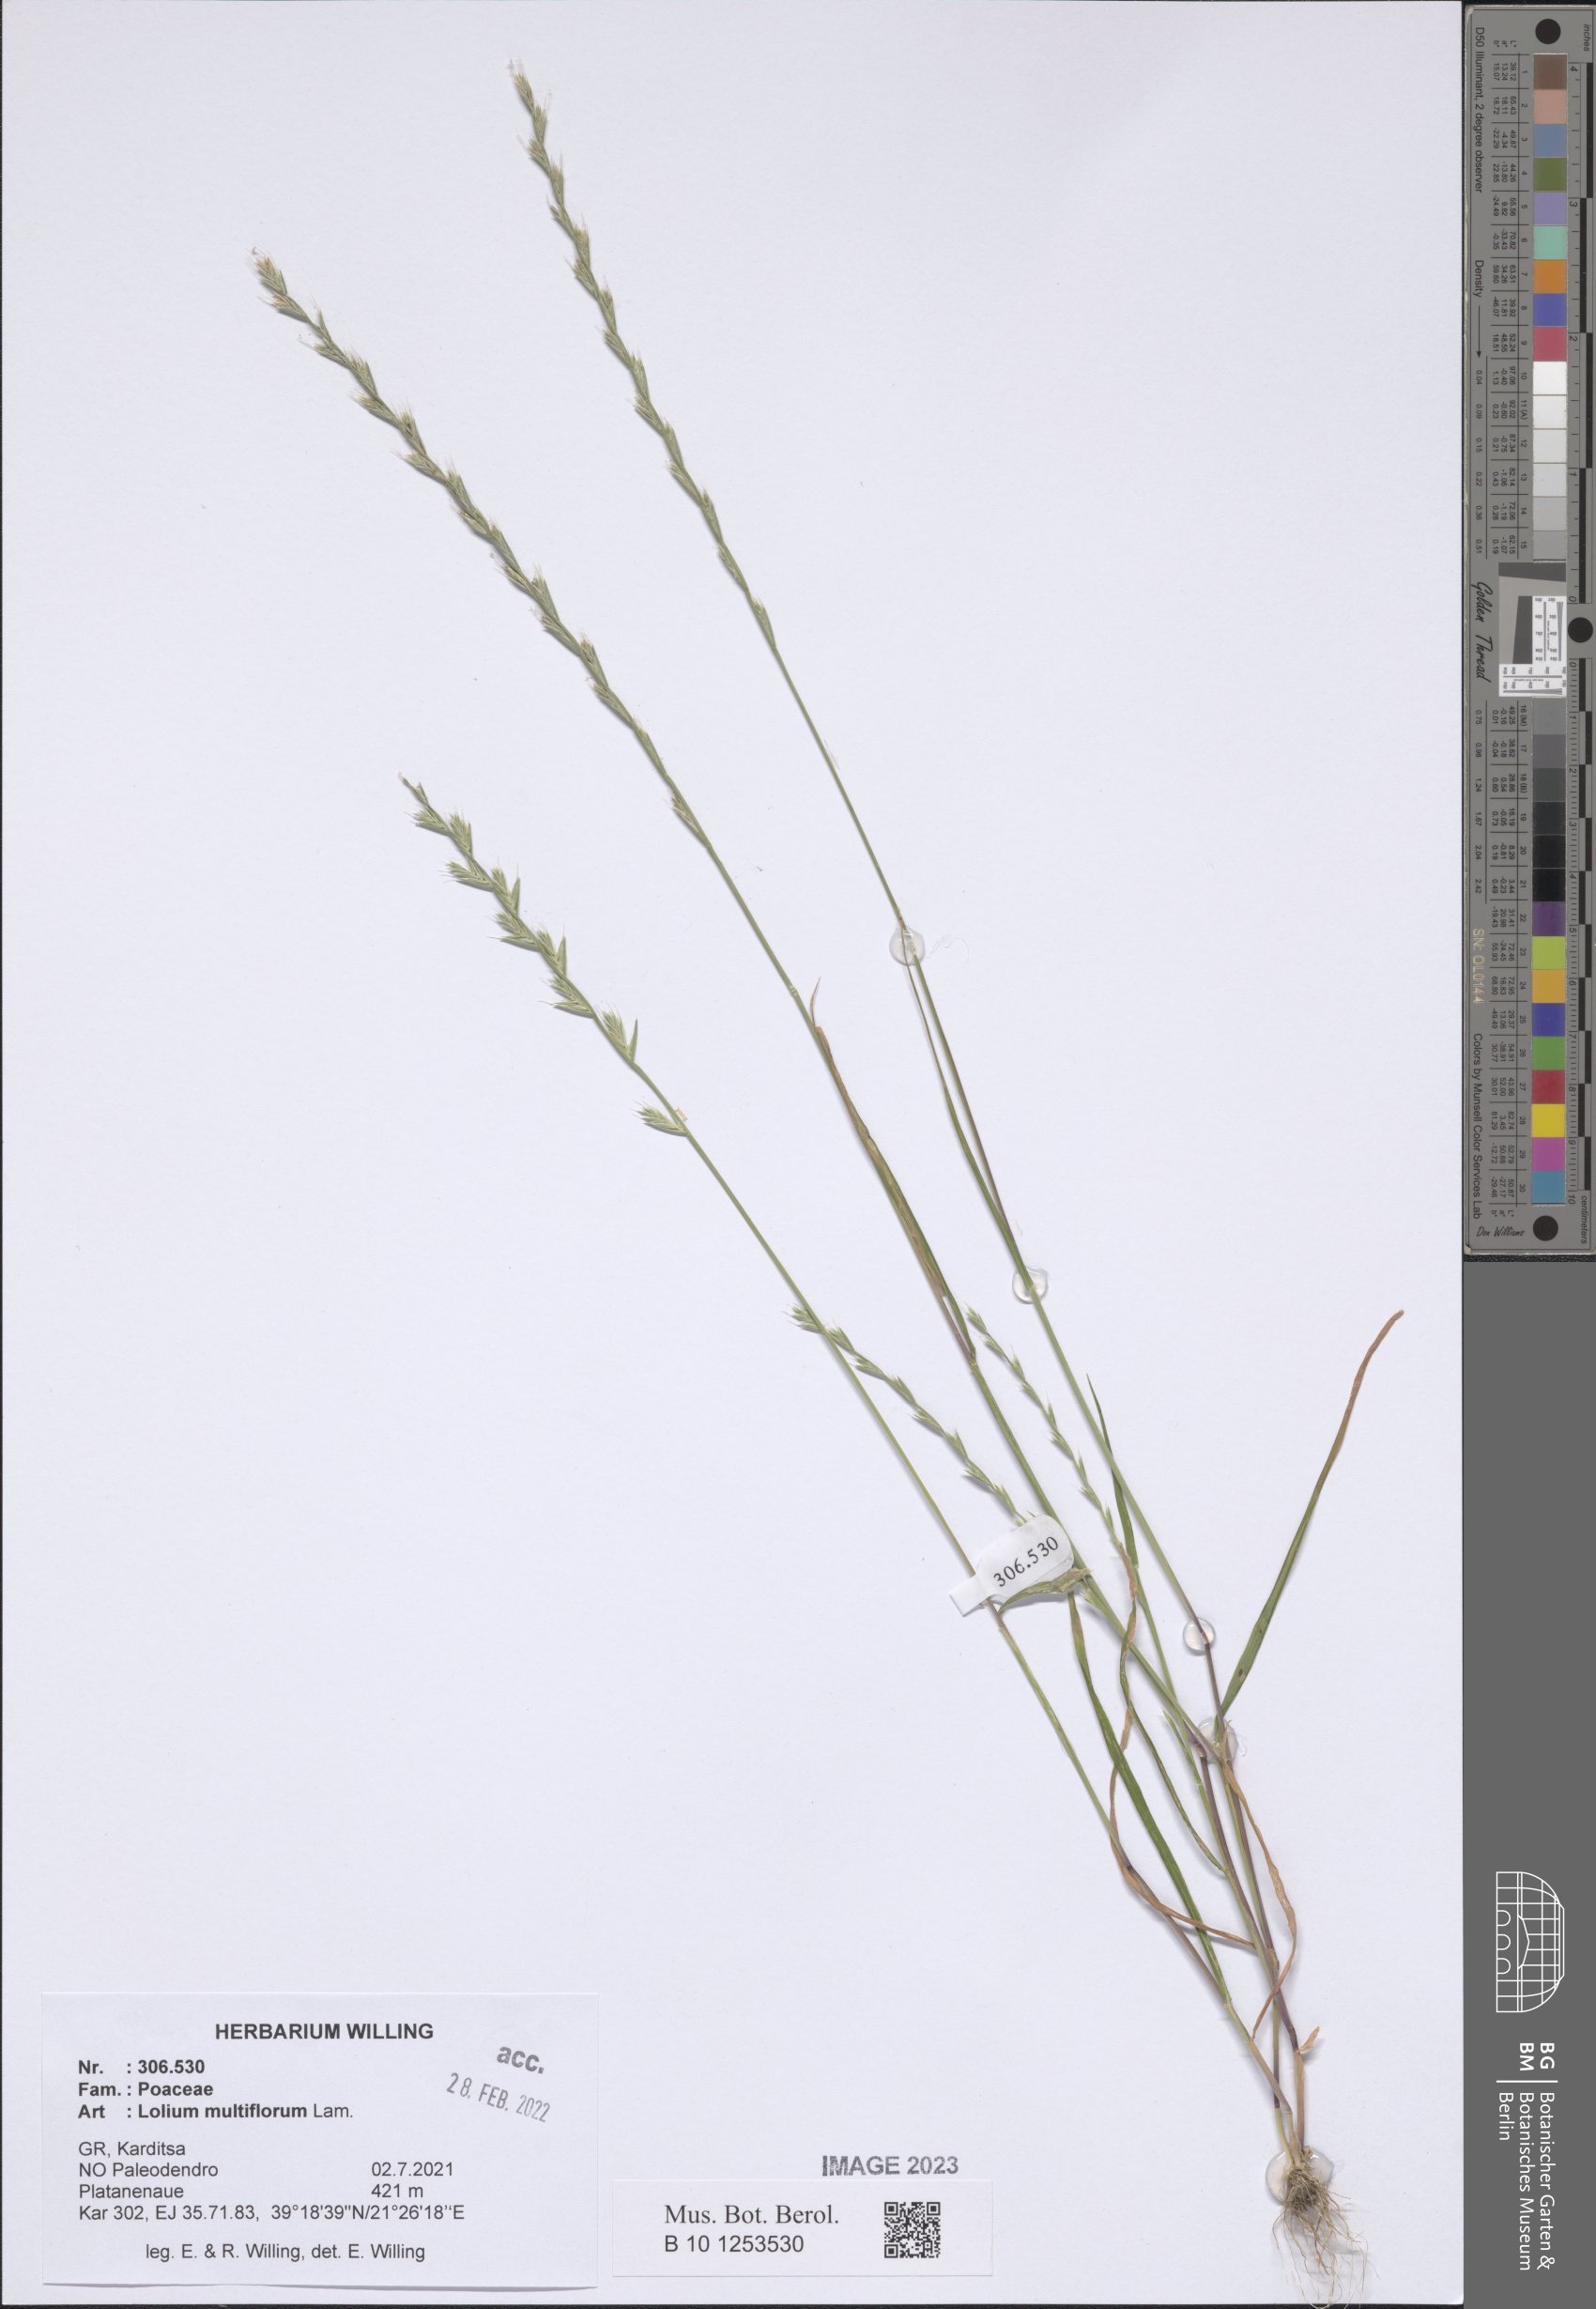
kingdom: Plantae
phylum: Tracheophyta
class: Liliopsida
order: Poales
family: Poaceae
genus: Lolium
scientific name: Lolium multiflorum
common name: Annual ryegrass
